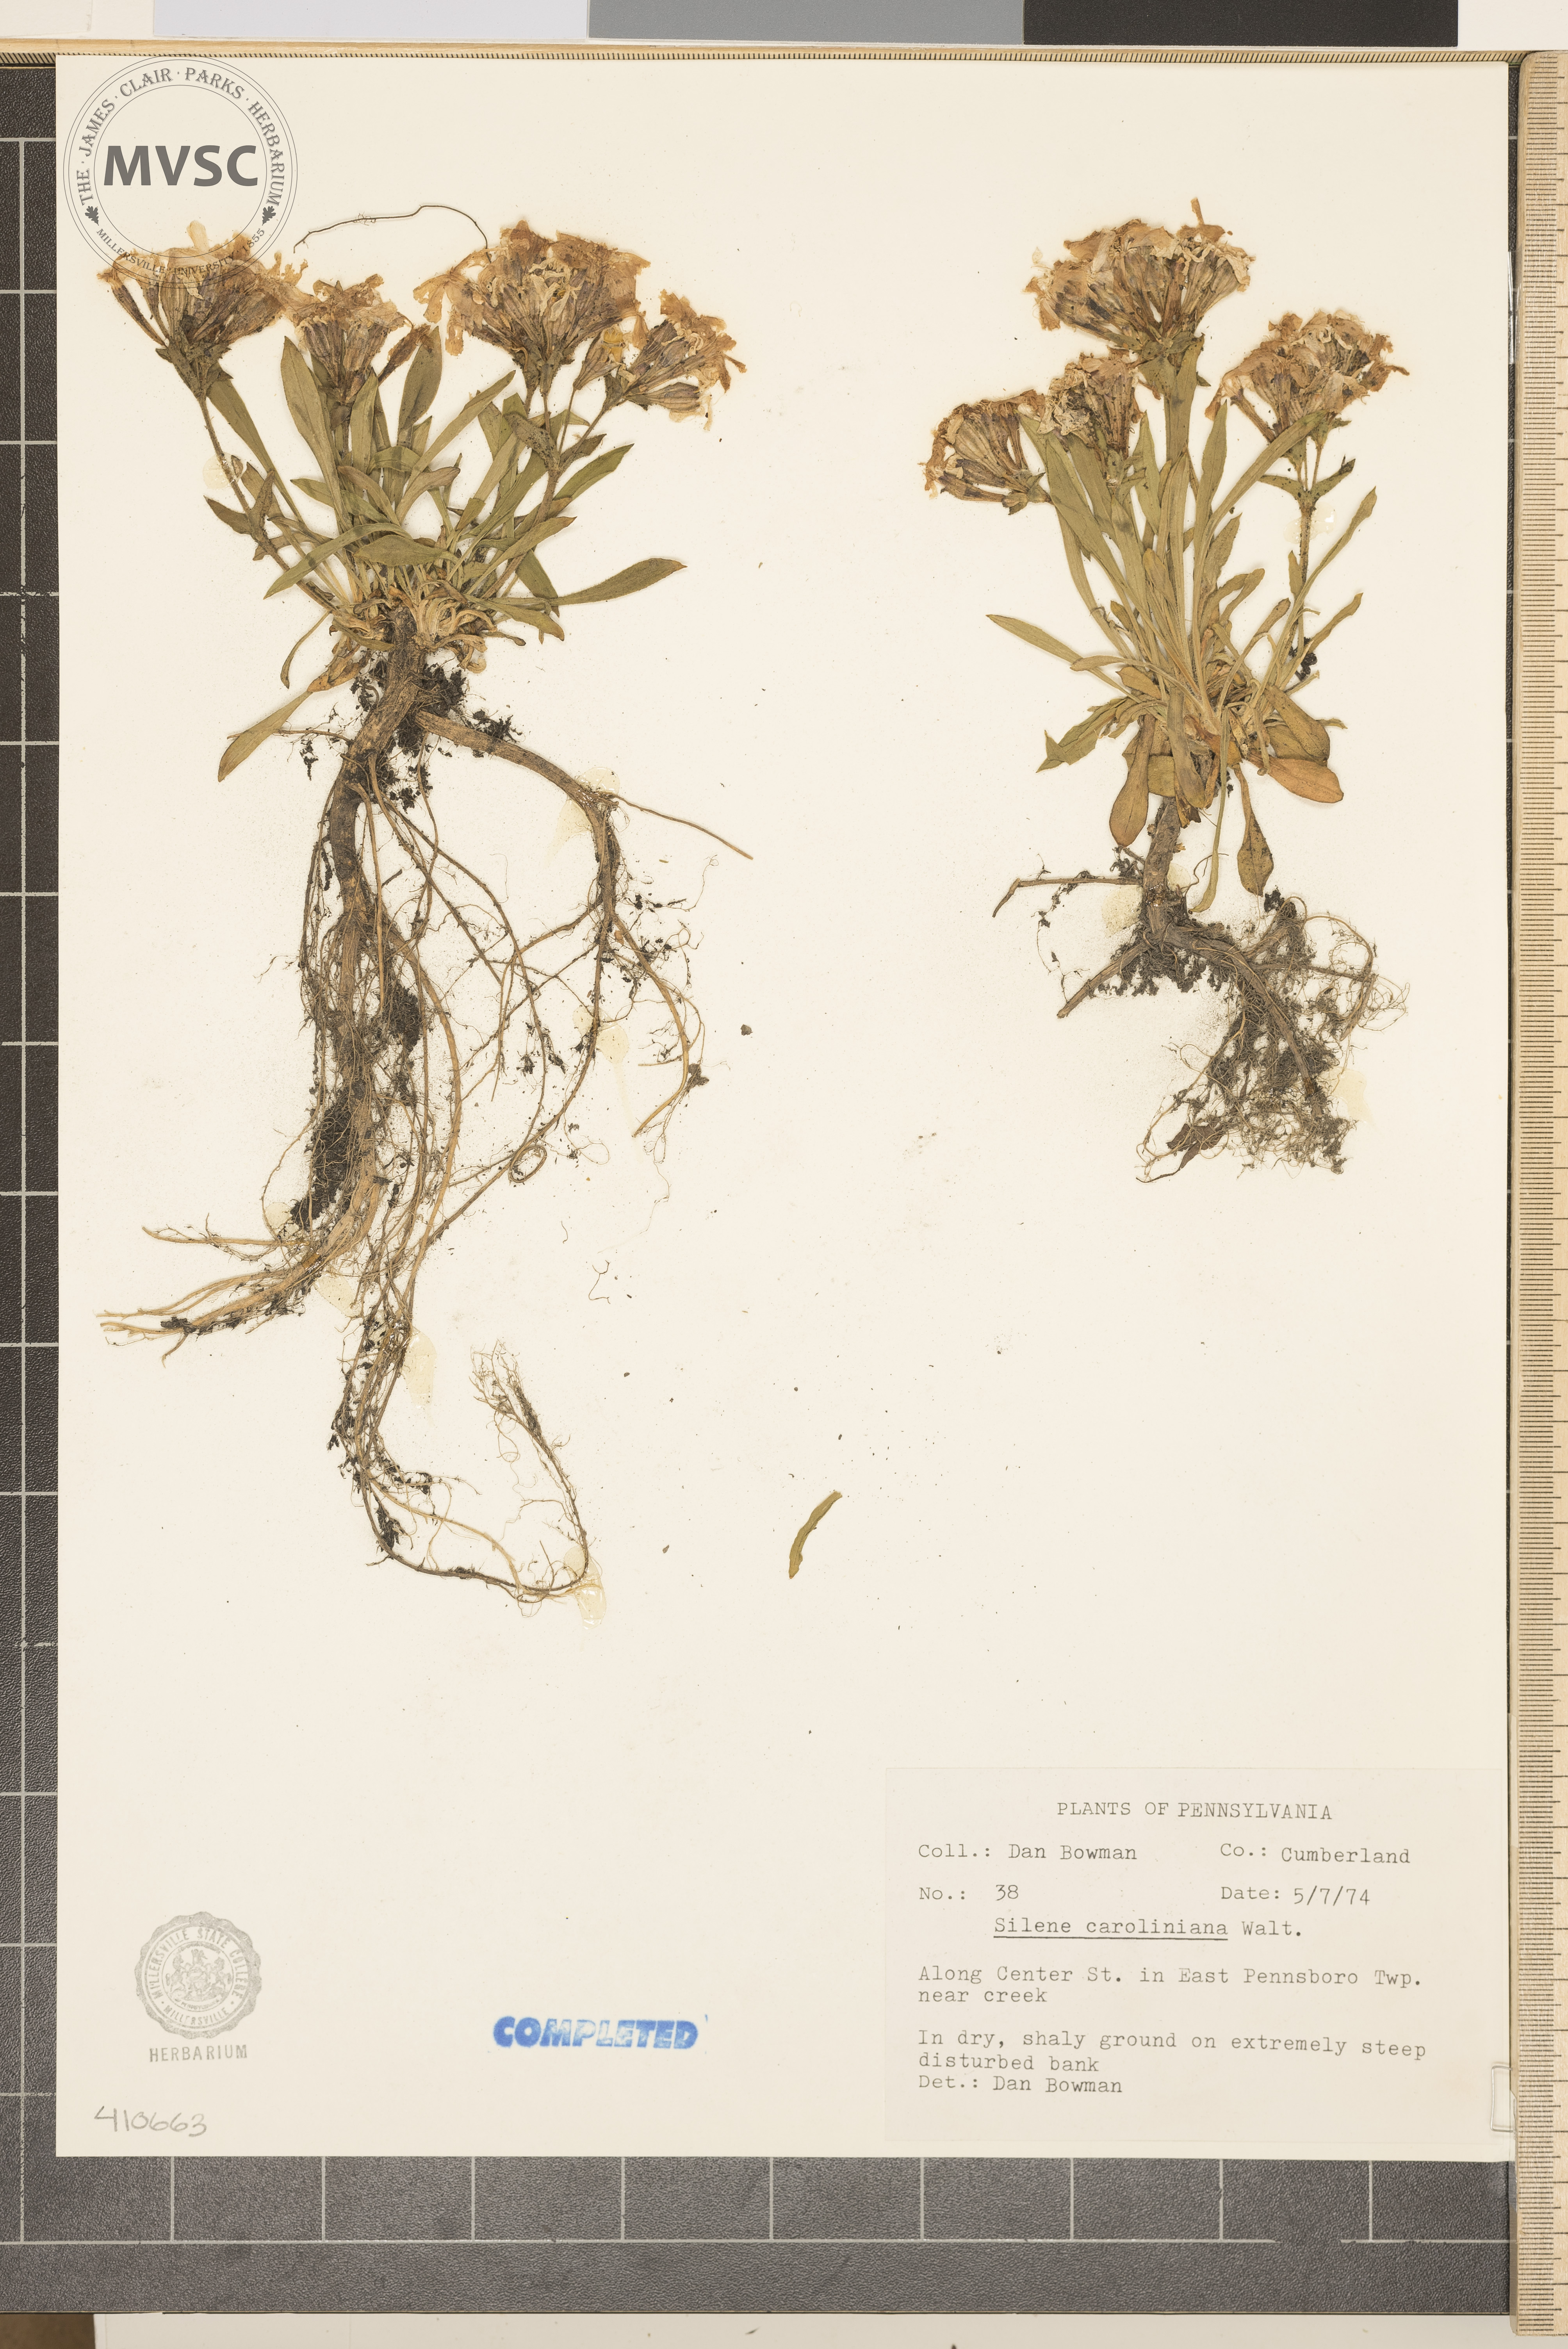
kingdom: Plantae
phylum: Tracheophyta
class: Magnoliopsida
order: Caryophyllales
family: Caryophyllaceae
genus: Silene
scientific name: Silene caroliniana
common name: Sticky catchfly
